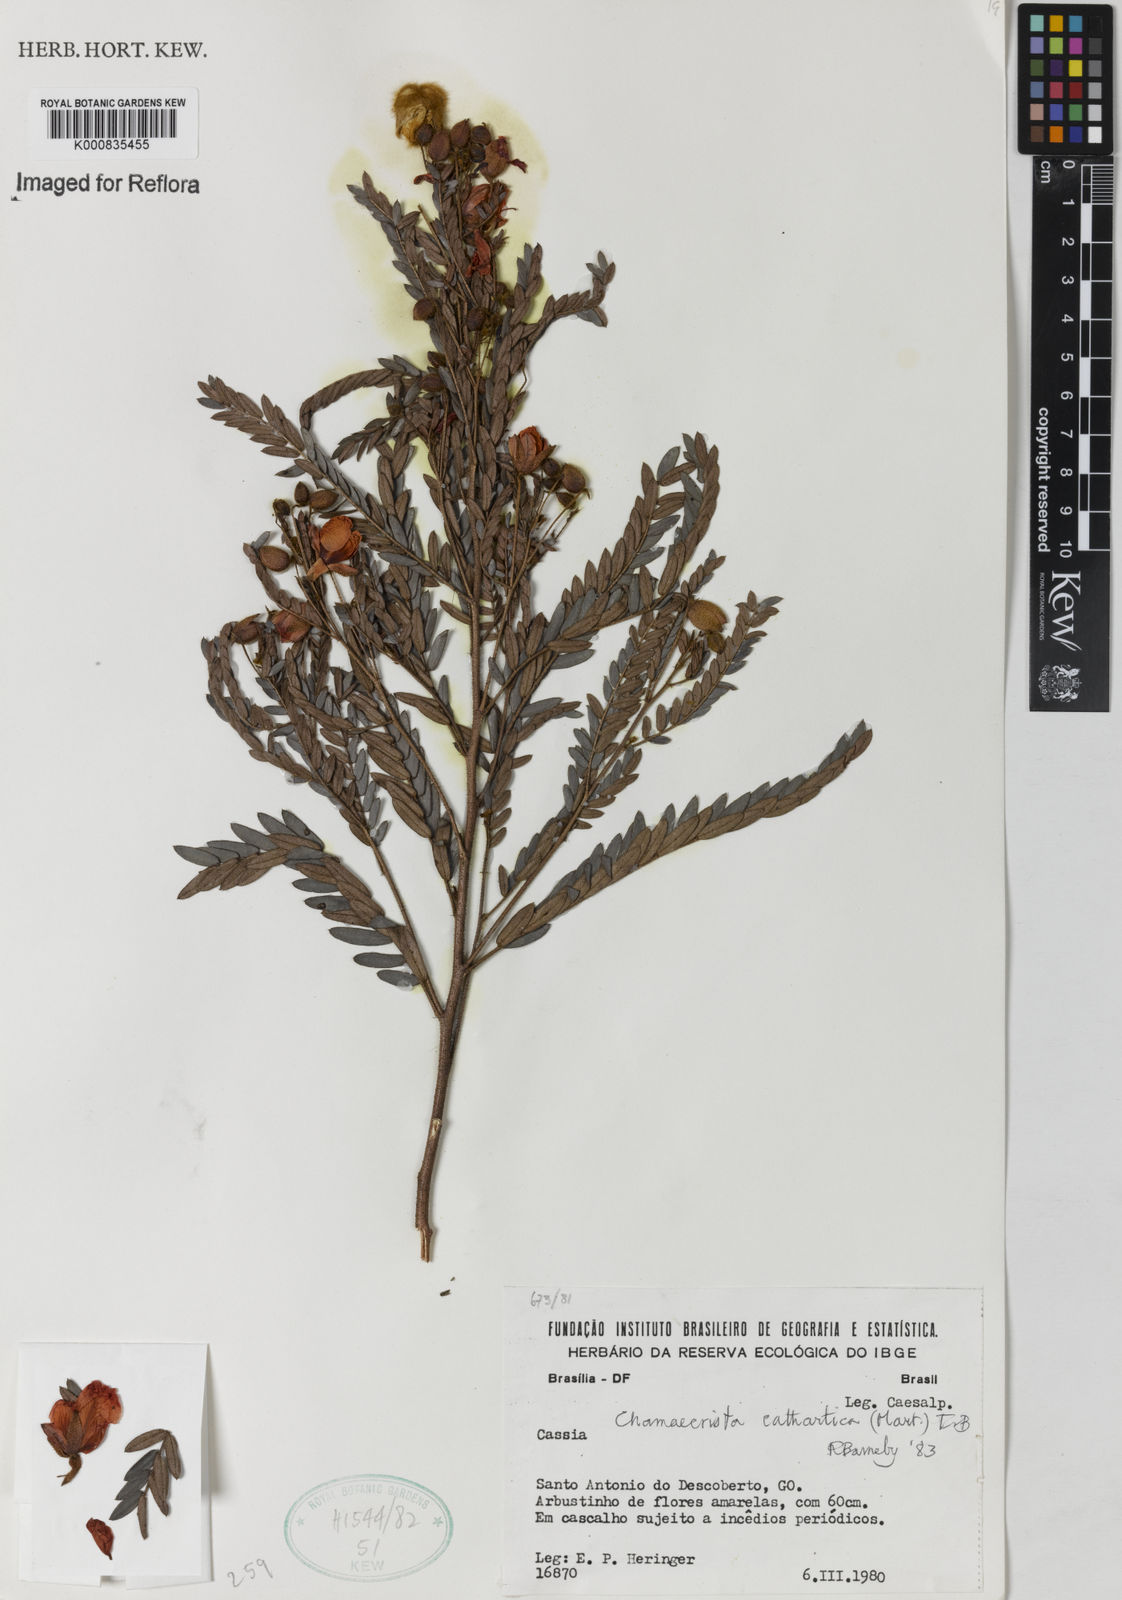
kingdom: Plantae
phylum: Tracheophyta
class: Magnoliopsida
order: Fabales
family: Fabaceae
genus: Chamaecrista
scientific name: Chamaecrista cathartica
